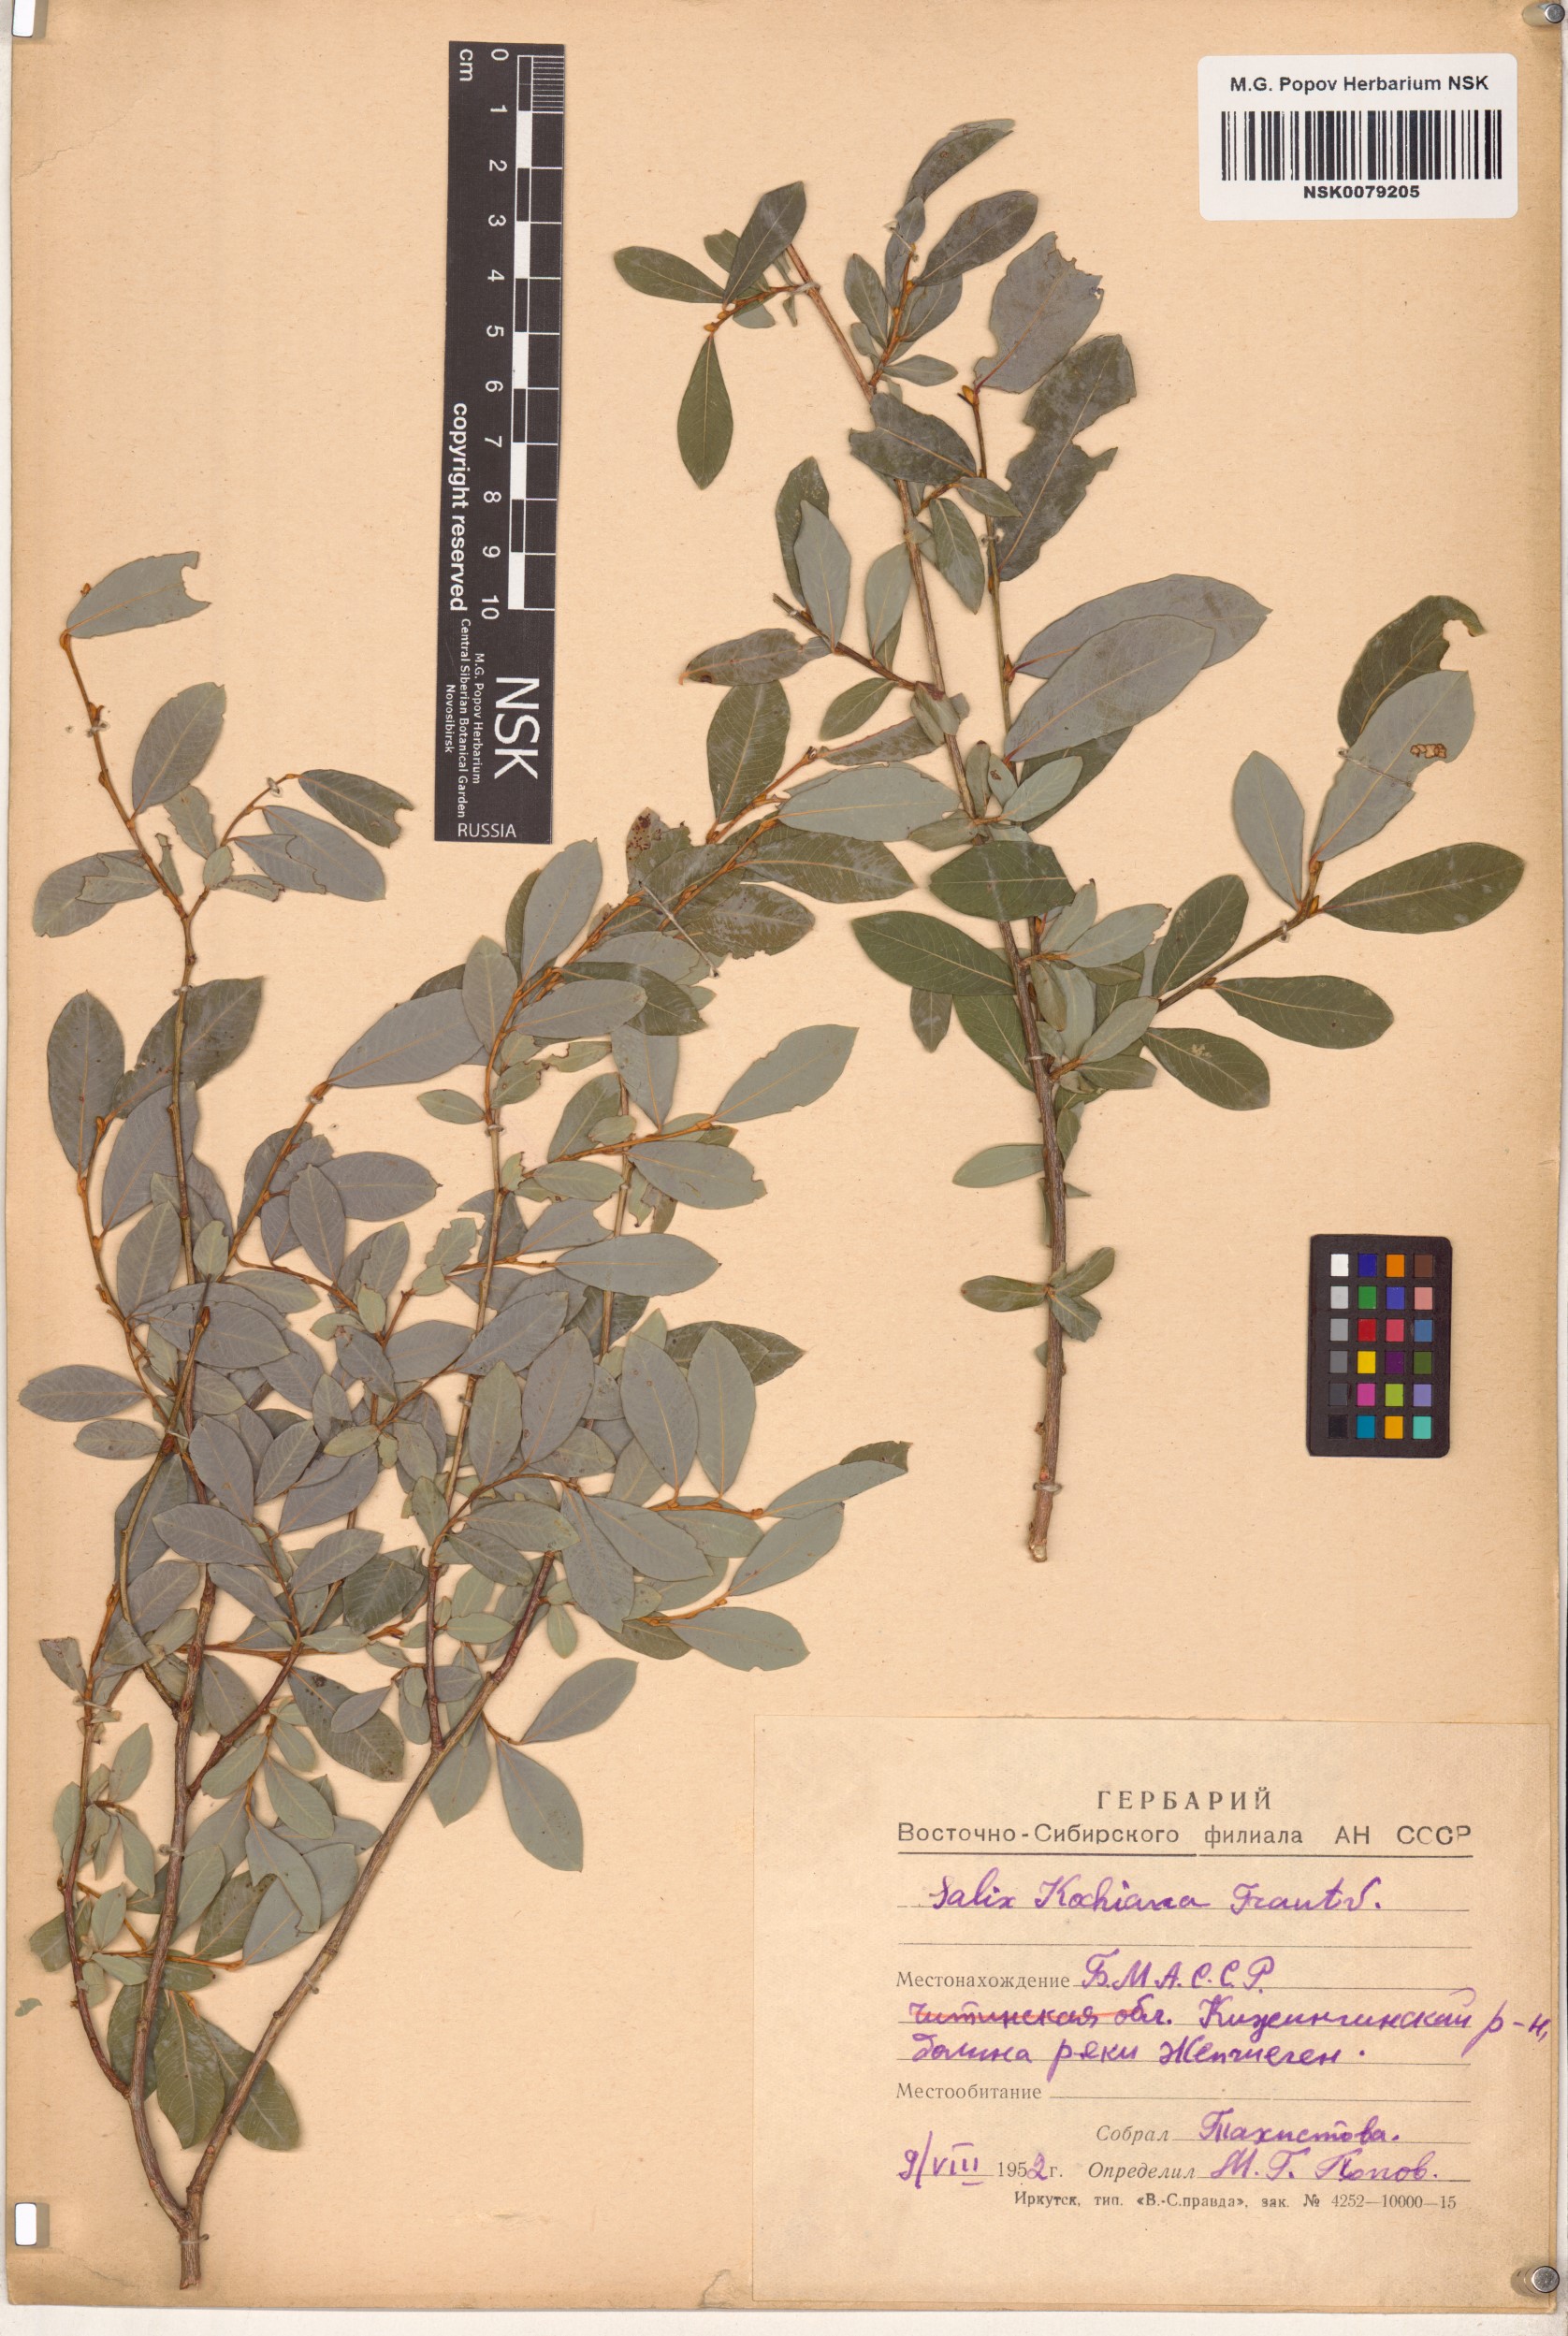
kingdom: Plantae
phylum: Tracheophyta
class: Magnoliopsida
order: Malpighiales
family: Salicaceae
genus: Salix
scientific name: Salix kochiana
